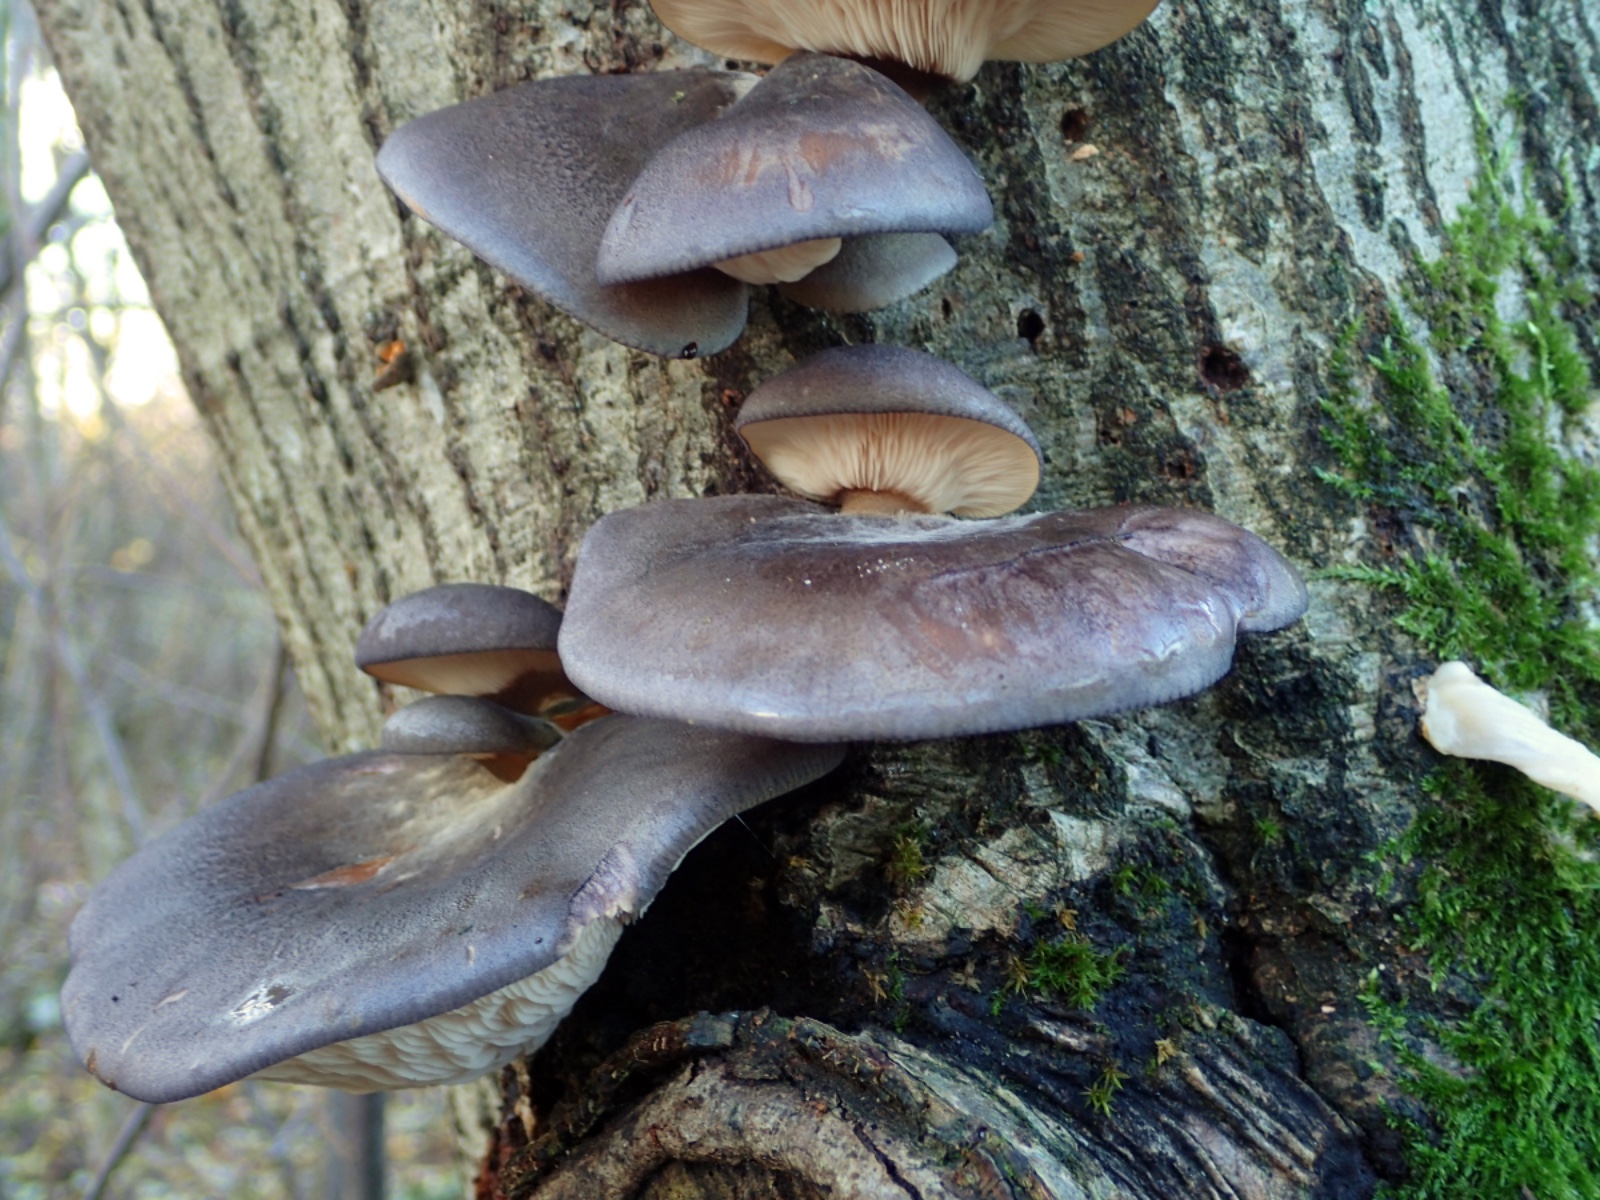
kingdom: Fungi
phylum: Basidiomycota
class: Agaricomycetes
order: Agaricales
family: Pleurotaceae
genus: Pleurotus
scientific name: Pleurotus ostreatus
